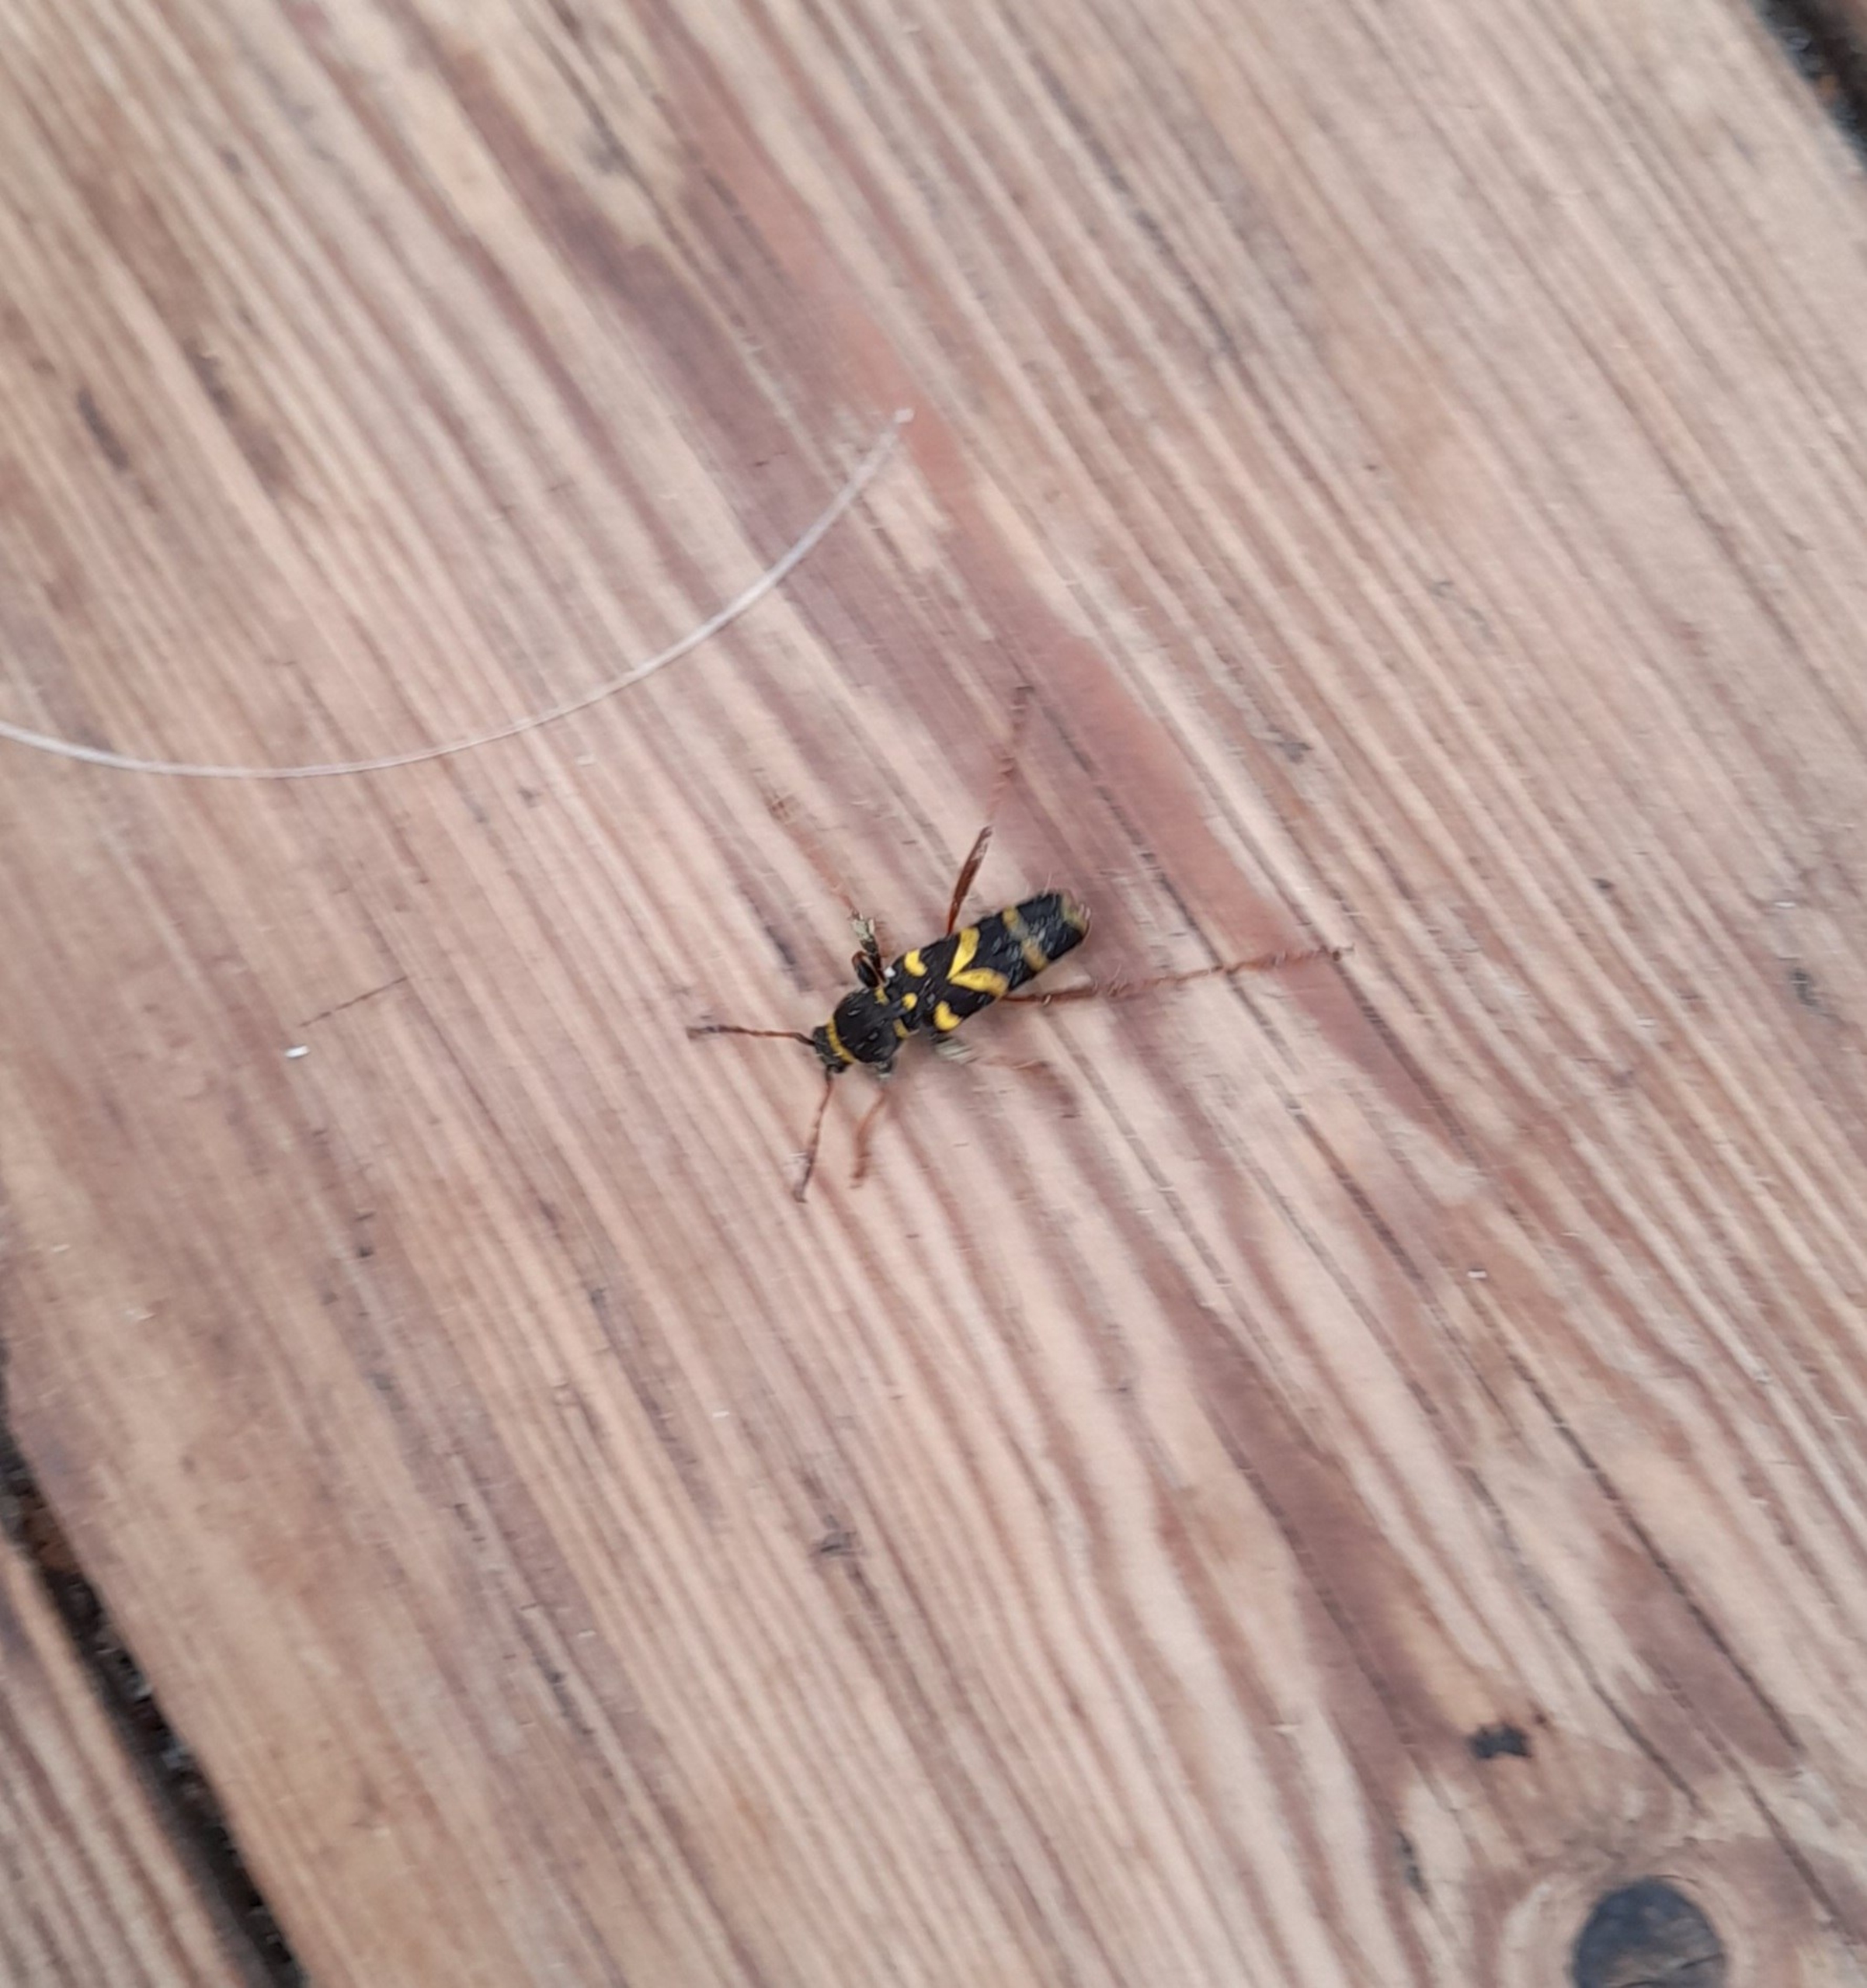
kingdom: Animalia
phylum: Arthropoda
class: Insecta
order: Coleoptera
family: Cerambycidae
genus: Clytus
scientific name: Clytus arietis
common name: Lille hvepsebuk
